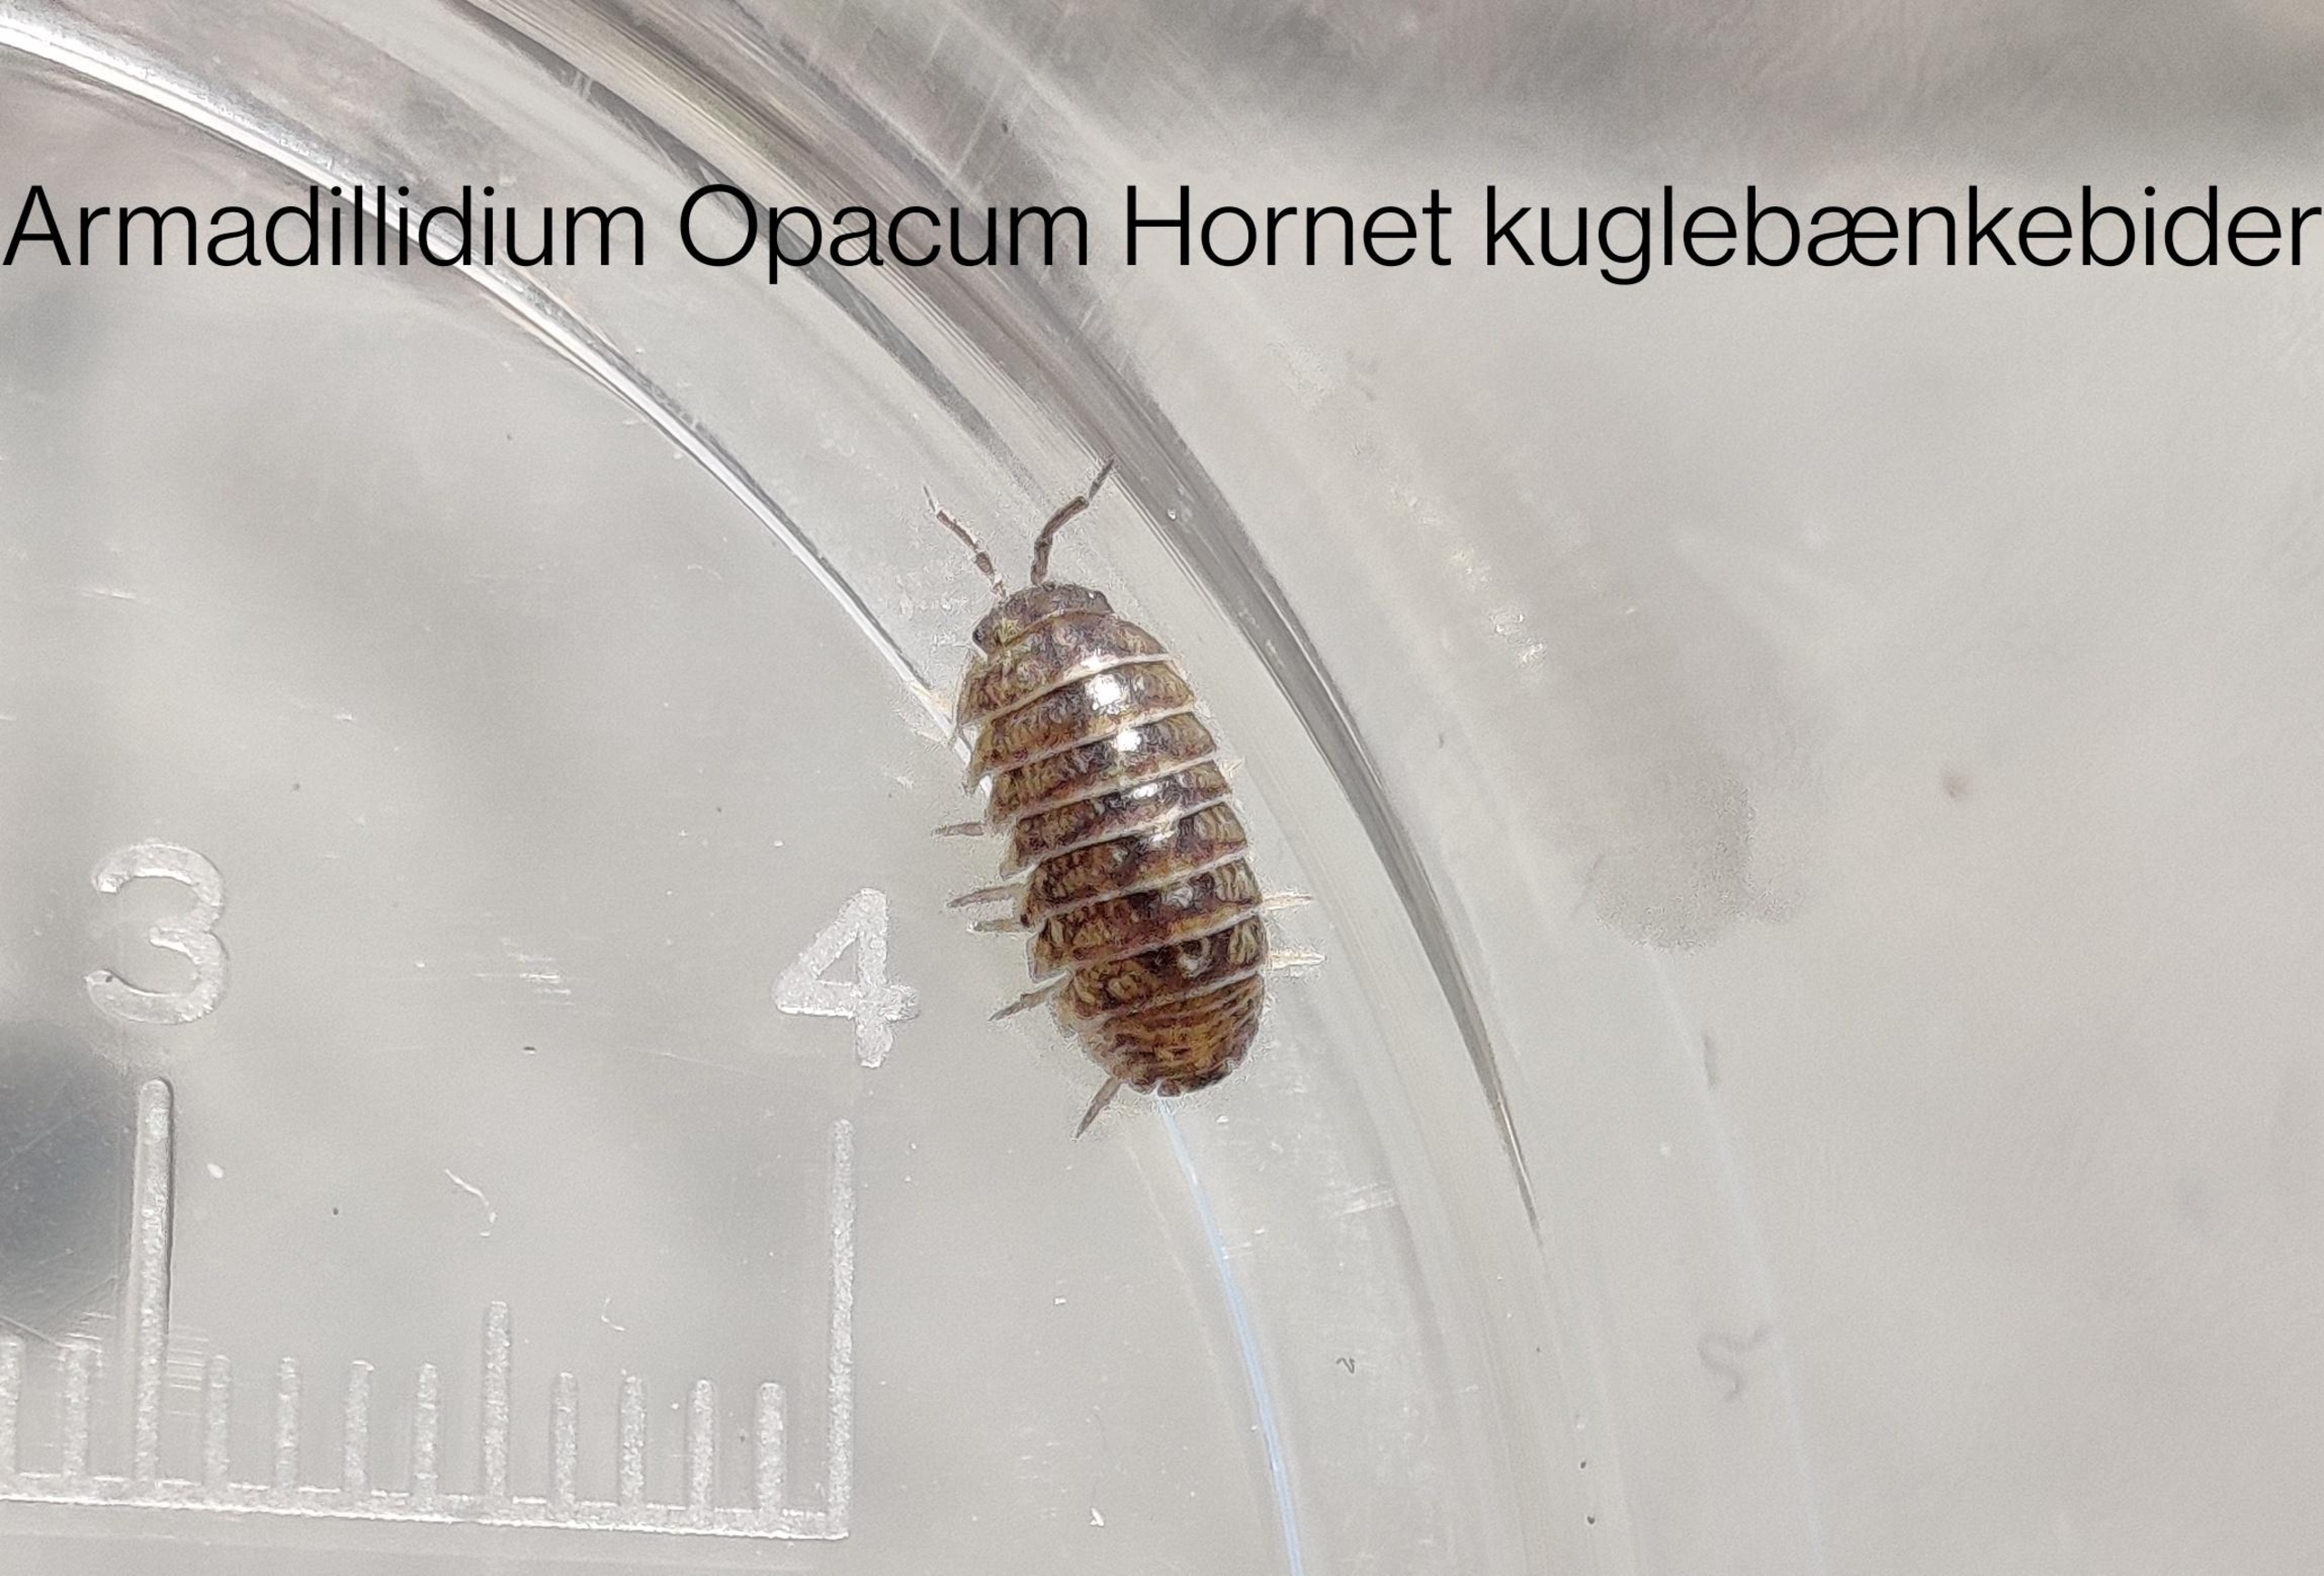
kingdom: Animalia
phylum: Arthropoda
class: Malacostraca
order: Isopoda
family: Armadillidiidae
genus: Armadillidium
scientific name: Armadillidium vulgare
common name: Almindelig kuglebænkebider
